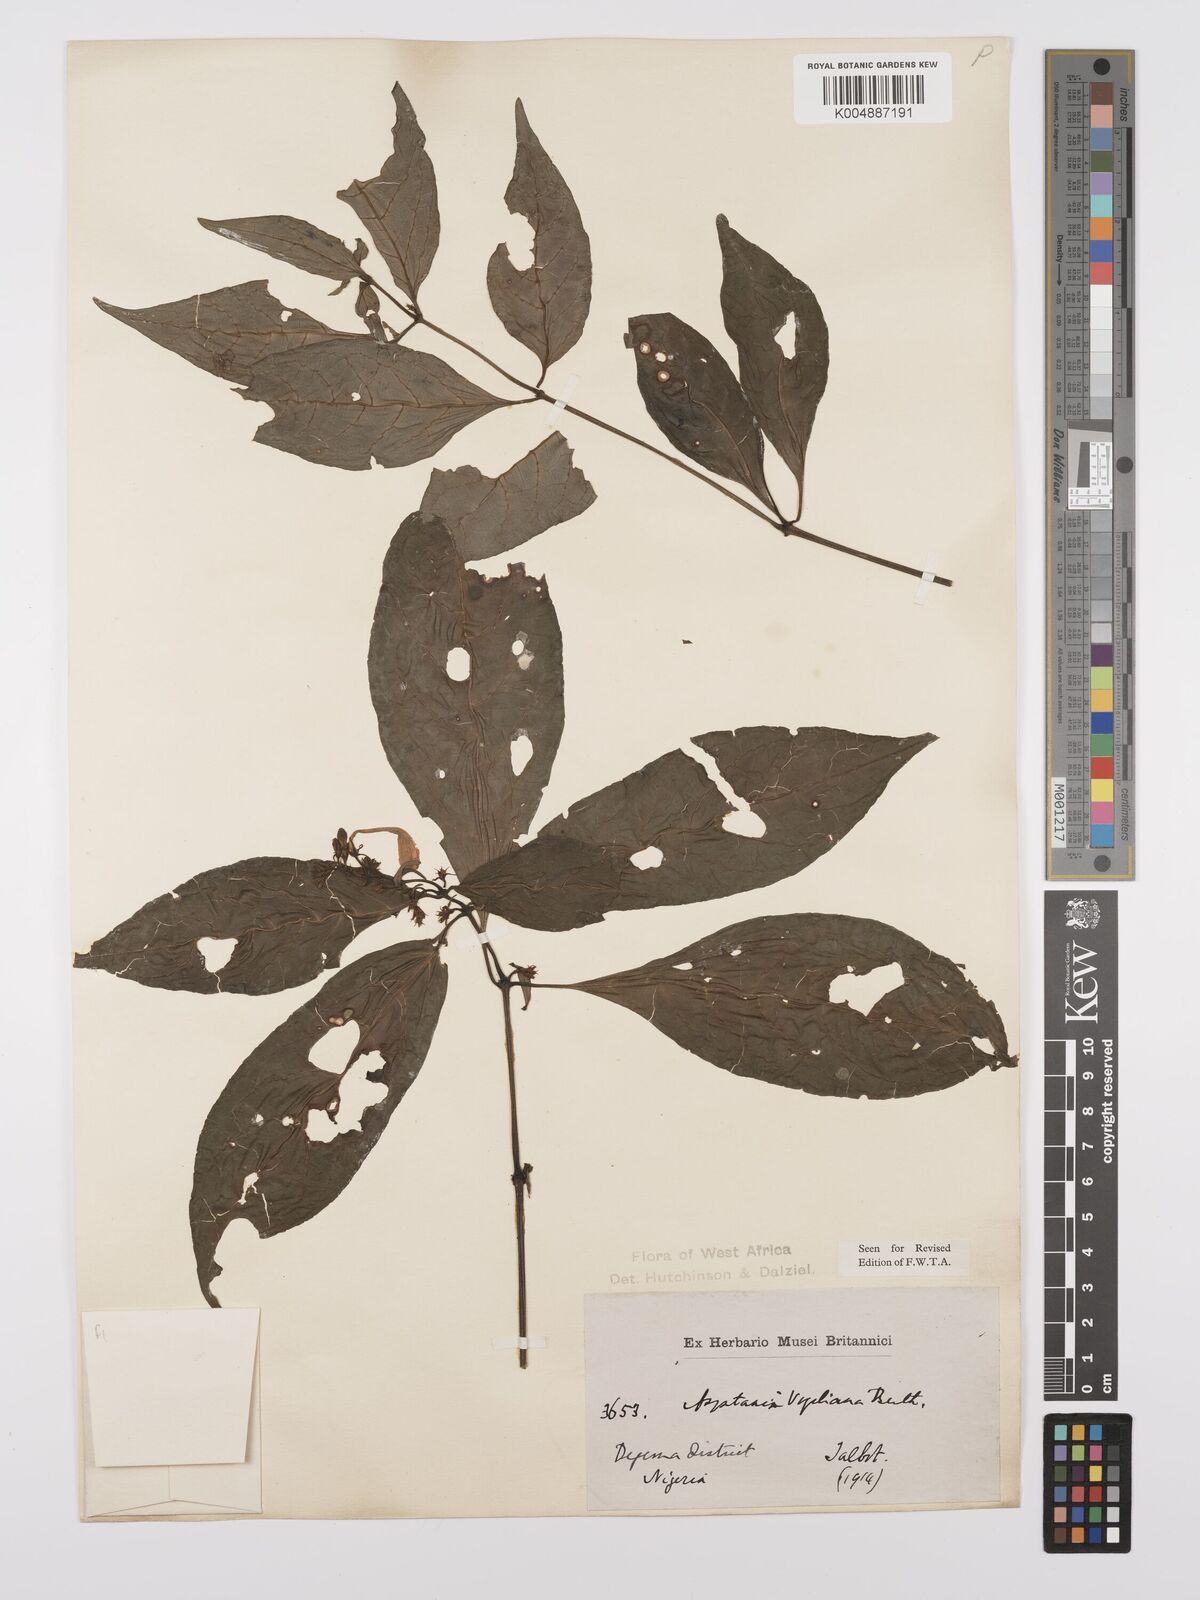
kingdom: Plantae
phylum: Tracheophyta
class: Magnoliopsida
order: Lamiales
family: Acanthaceae
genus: Asystasia
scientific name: Asystasia vogeliana
